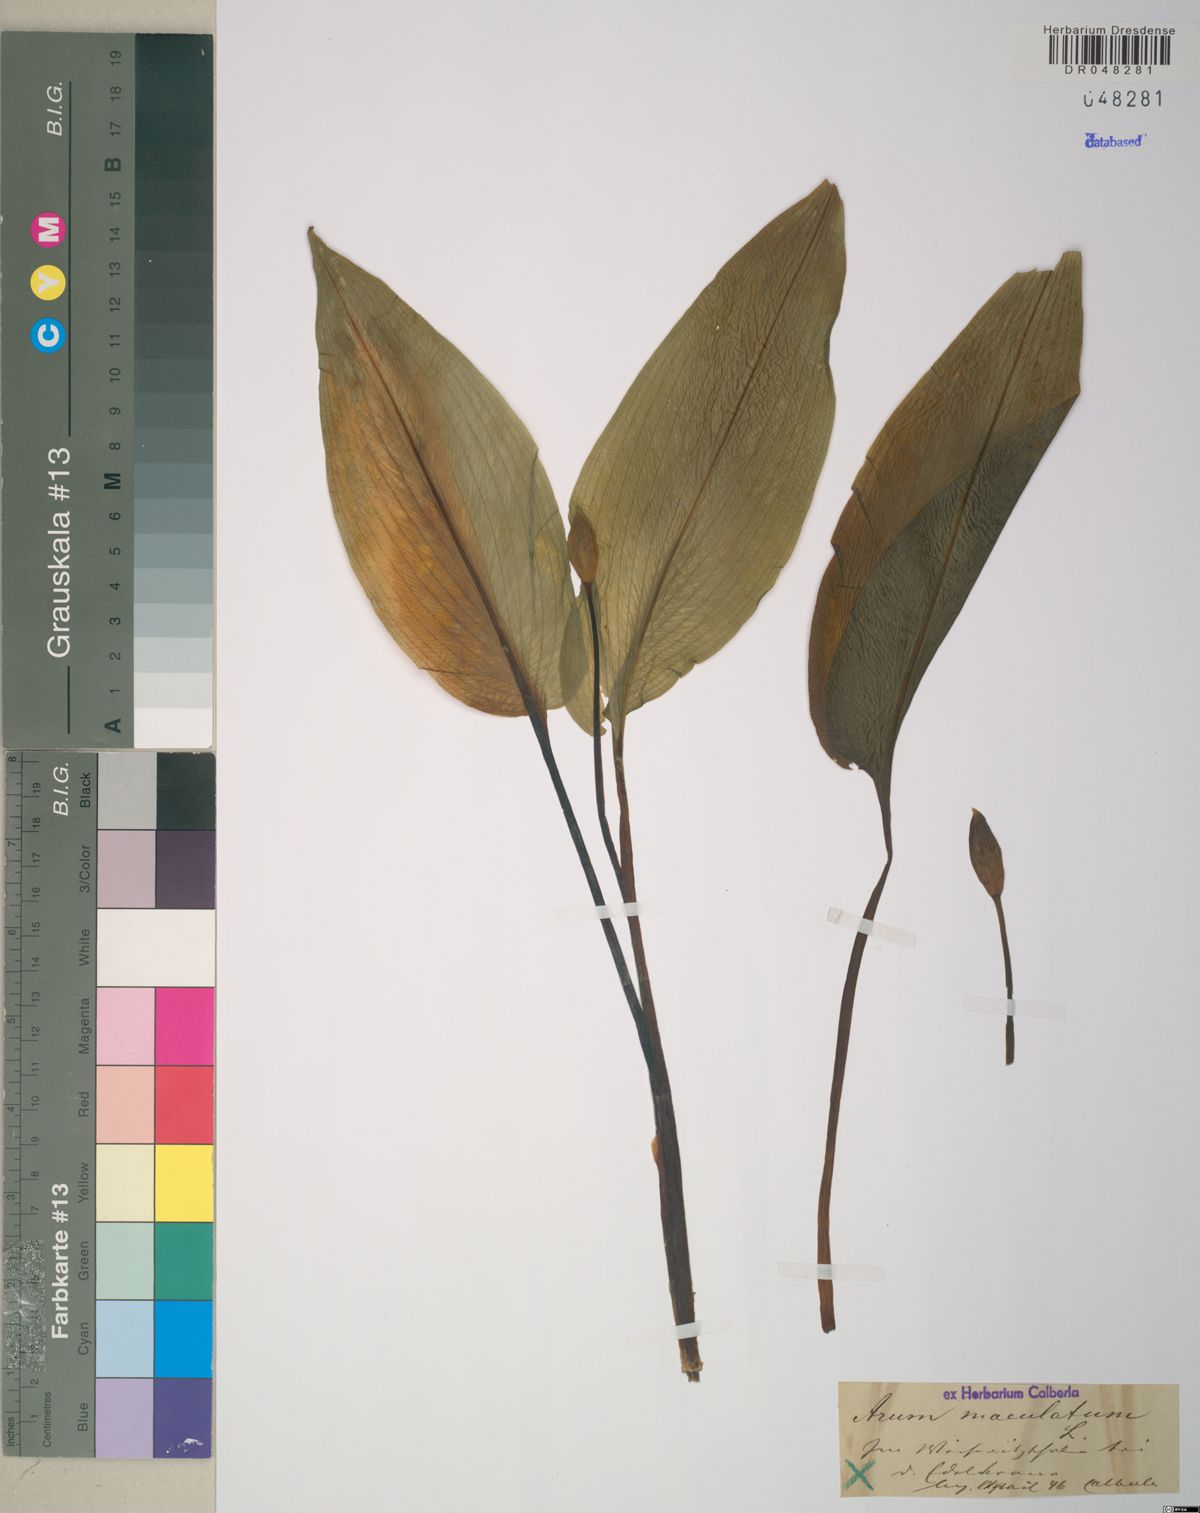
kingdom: Plantae
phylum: Tracheophyta
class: Liliopsida
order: Asparagales
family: Amaryllidaceae
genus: Allium
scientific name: Allium ursinum
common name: Ramsons
